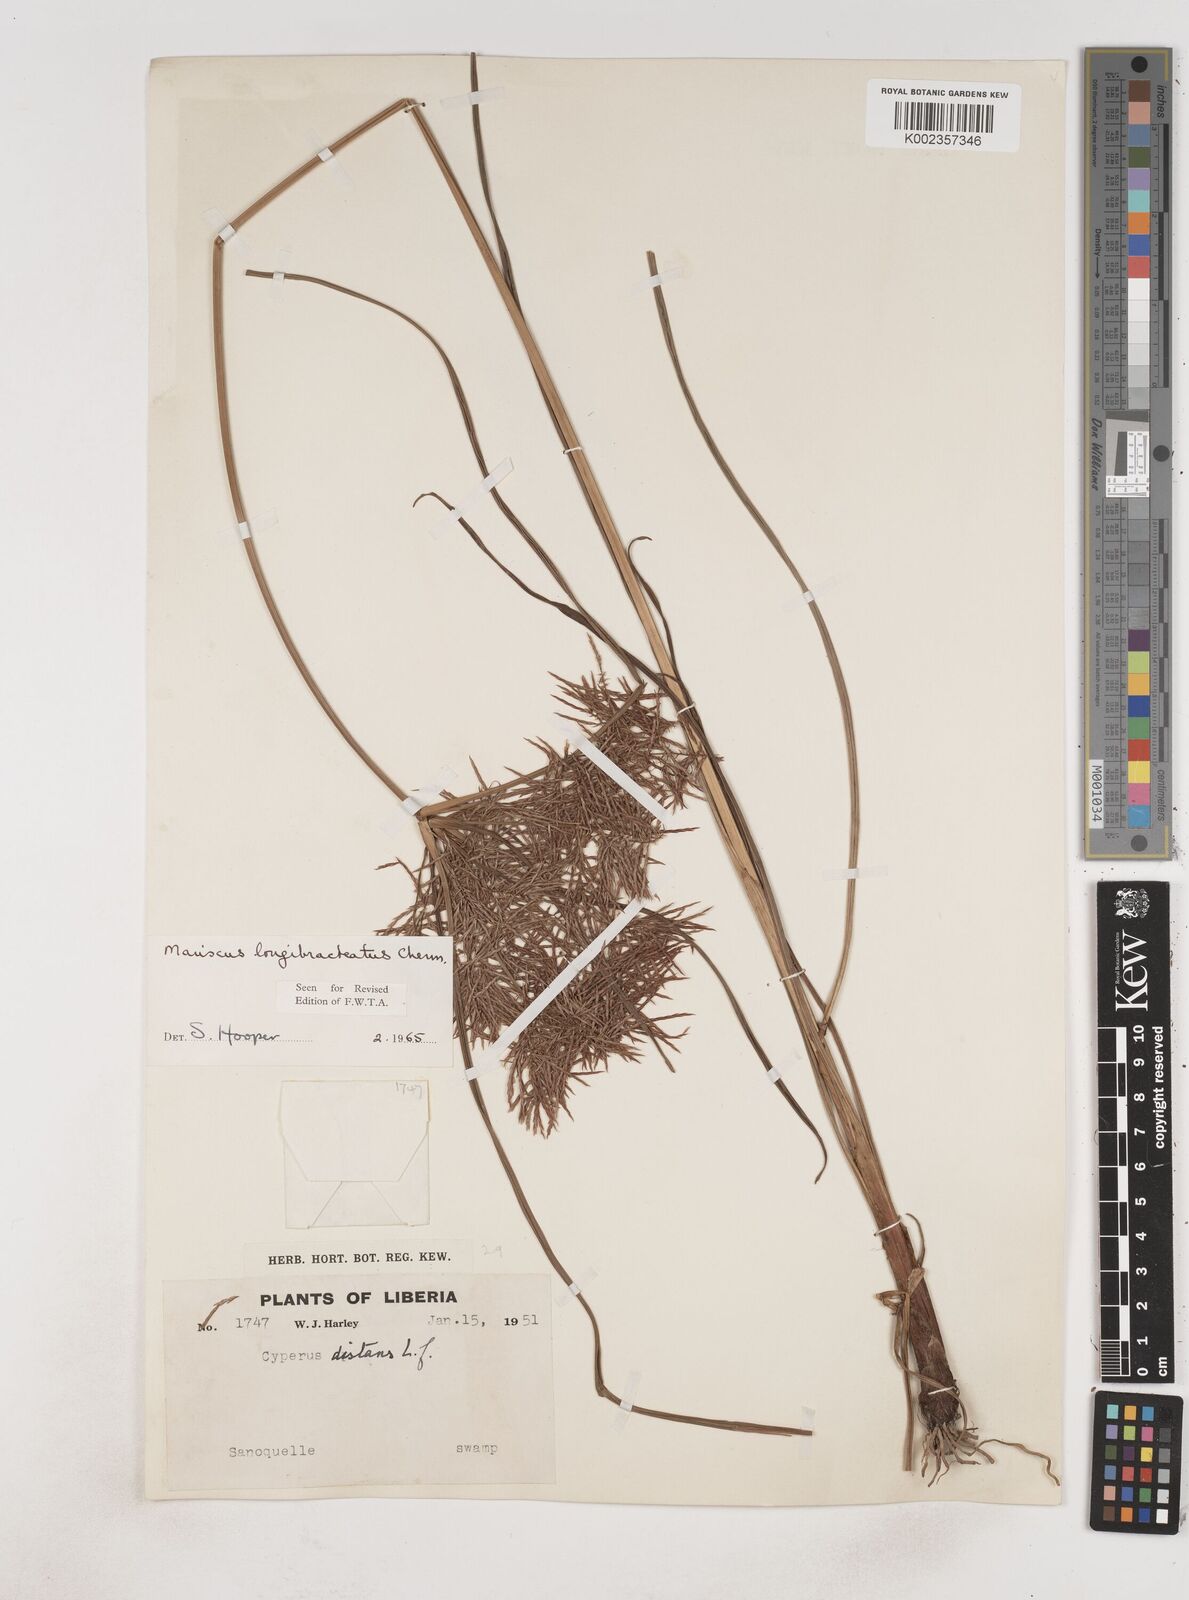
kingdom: Plantae
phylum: Tracheophyta
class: Liliopsida
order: Poales
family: Cyperaceae
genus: Cyperus
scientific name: Cyperus distans
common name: Slender cyperus
